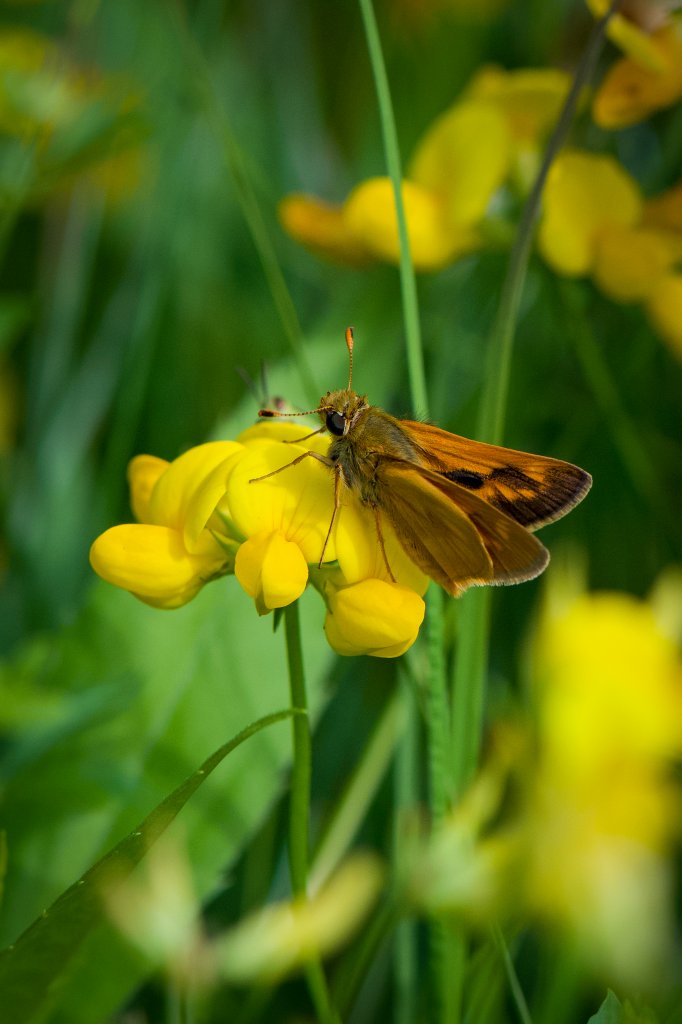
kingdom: Animalia
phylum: Arthropoda
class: Insecta
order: Lepidoptera
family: Hesperiidae
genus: Polites
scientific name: Polites
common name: Long Dash Skipper
